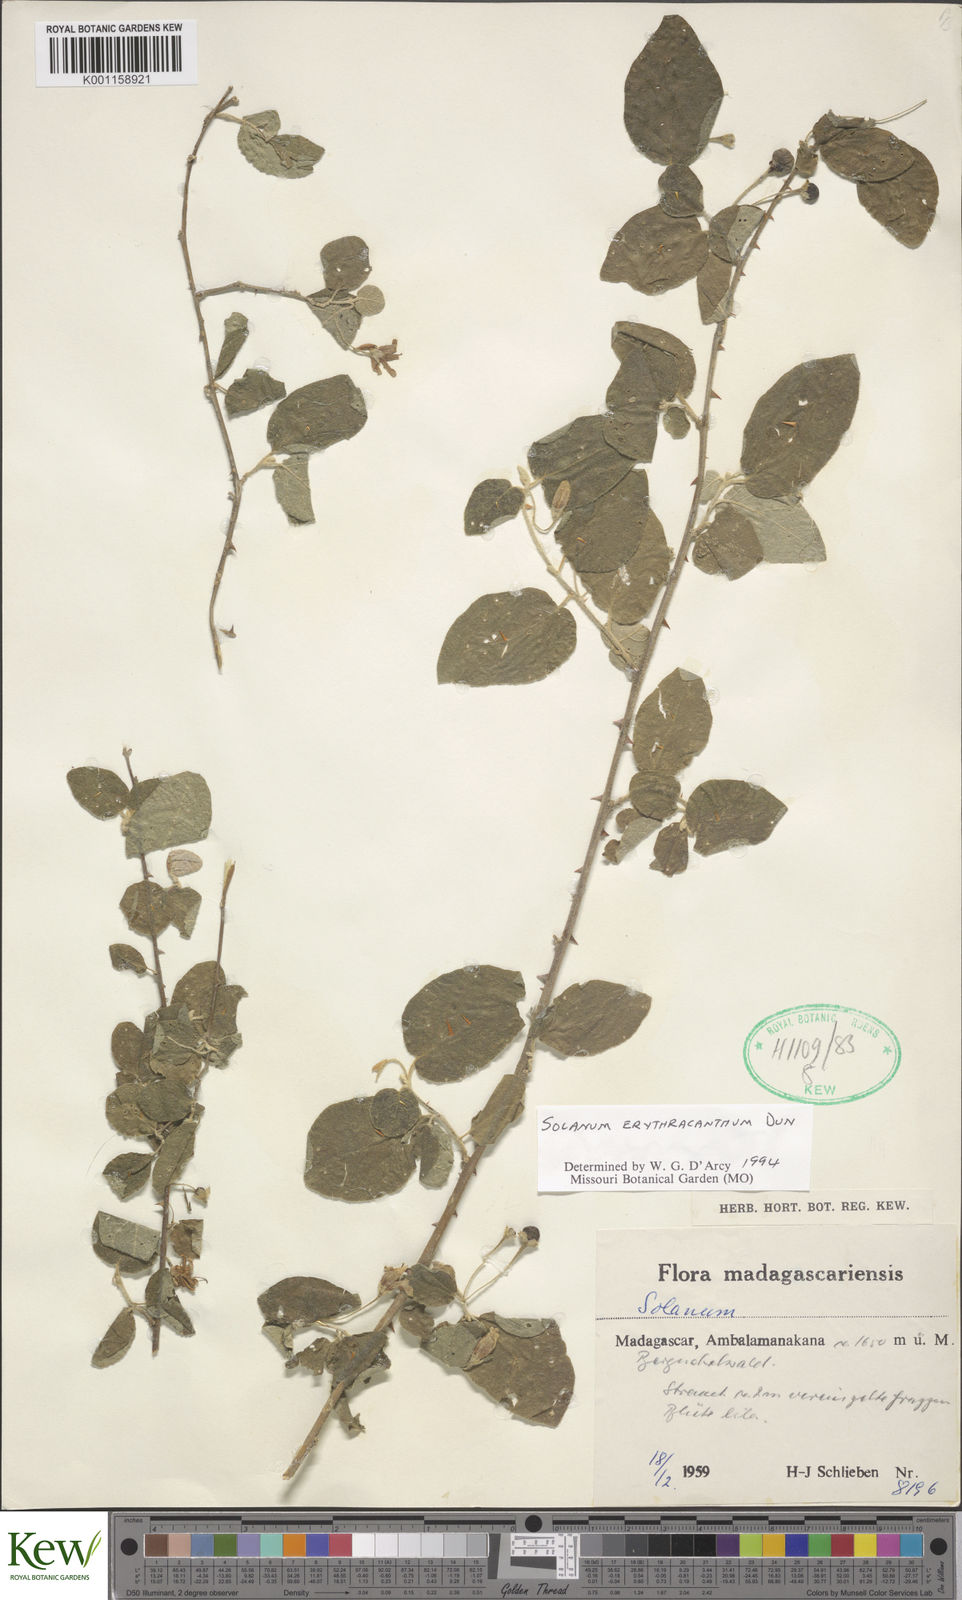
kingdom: Plantae
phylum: Tracheophyta
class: Magnoliopsida
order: Solanales
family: Solanaceae
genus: Solanum
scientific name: Solanum erythracanthum
